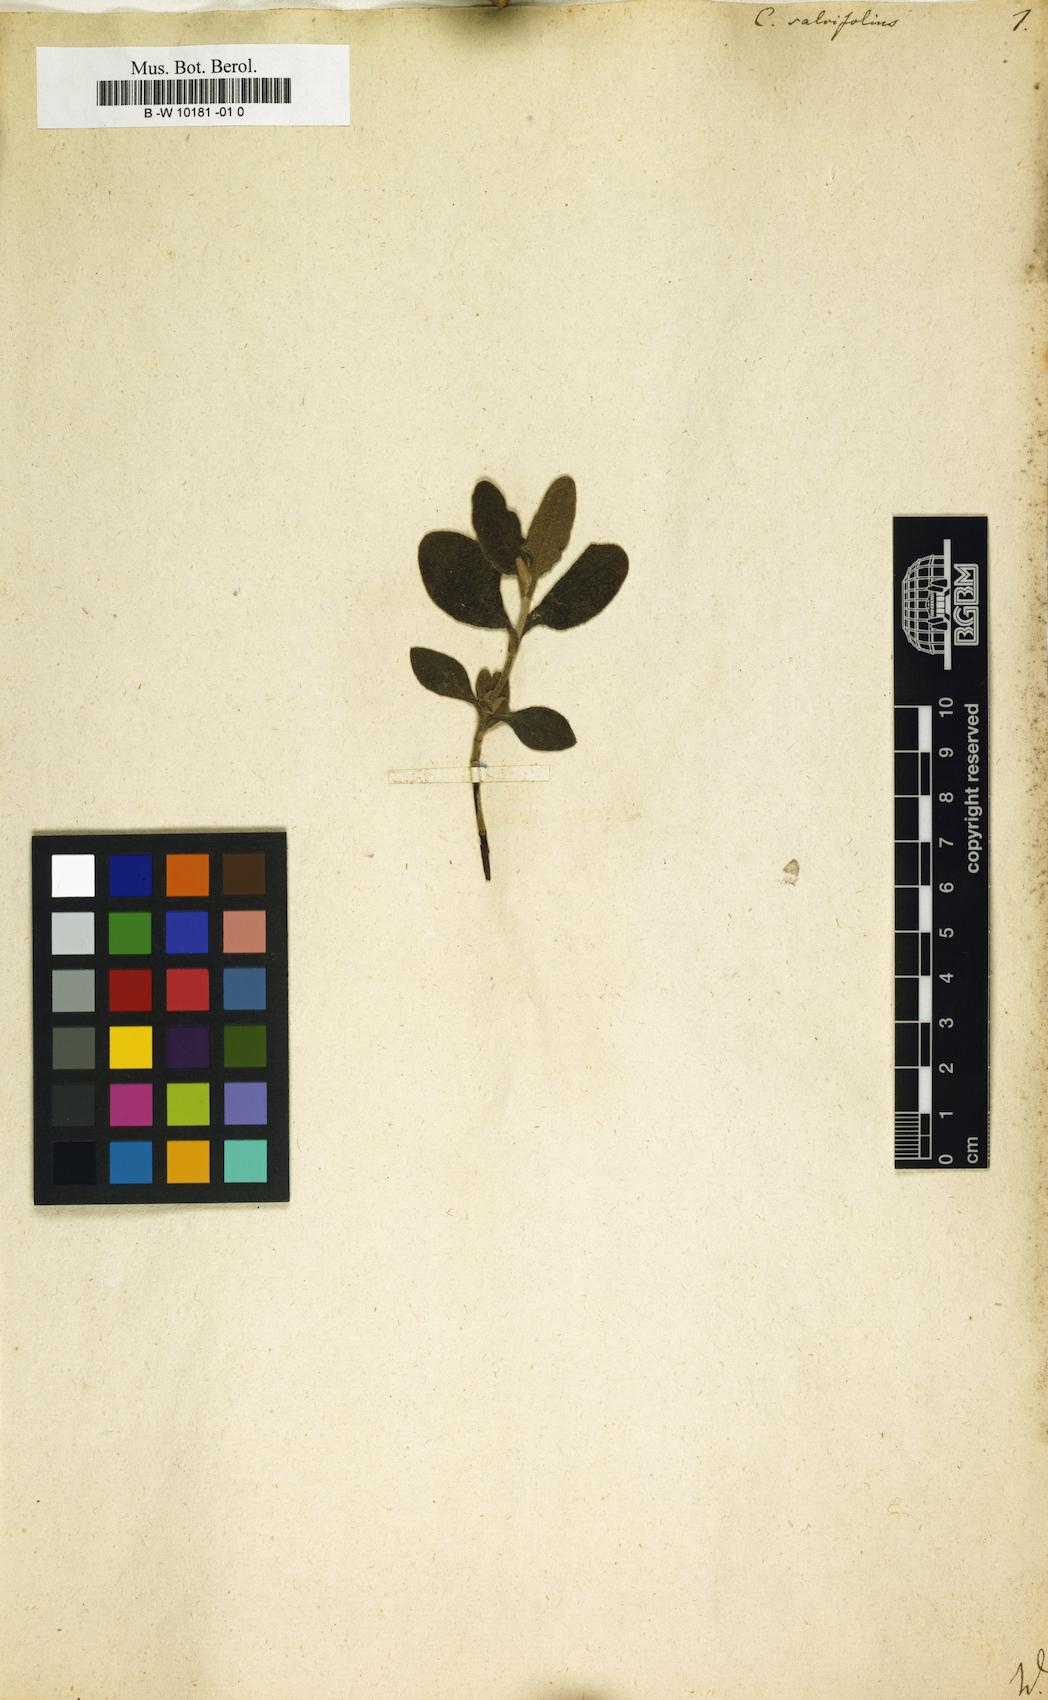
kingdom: Plantae
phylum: Tracheophyta
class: Magnoliopsida
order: Malvales
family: Cistaceae
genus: Cistus
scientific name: Cistus salviifolius
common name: Salvia cistus
